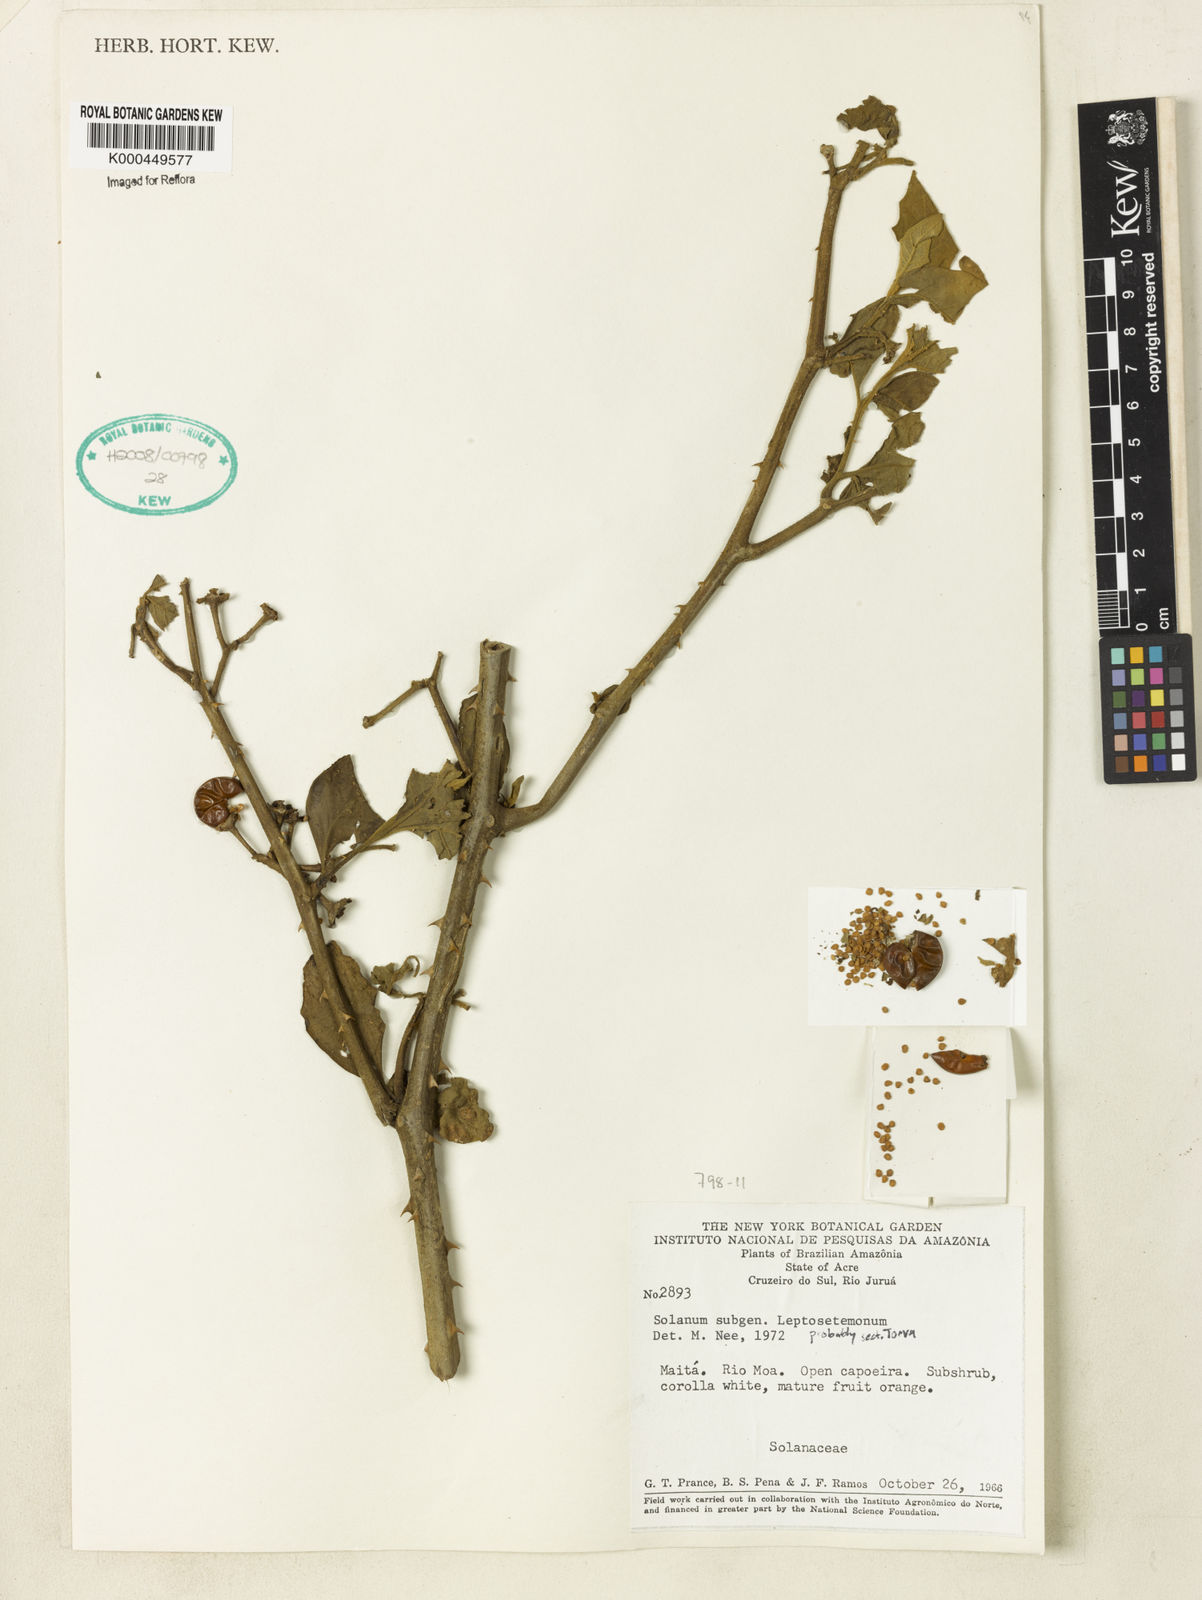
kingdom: Plantae
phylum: Tracheophyta
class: Magnoliopsida
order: Solanales
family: Solanaceae
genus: Solanum
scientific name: Solanum pedemontanum
